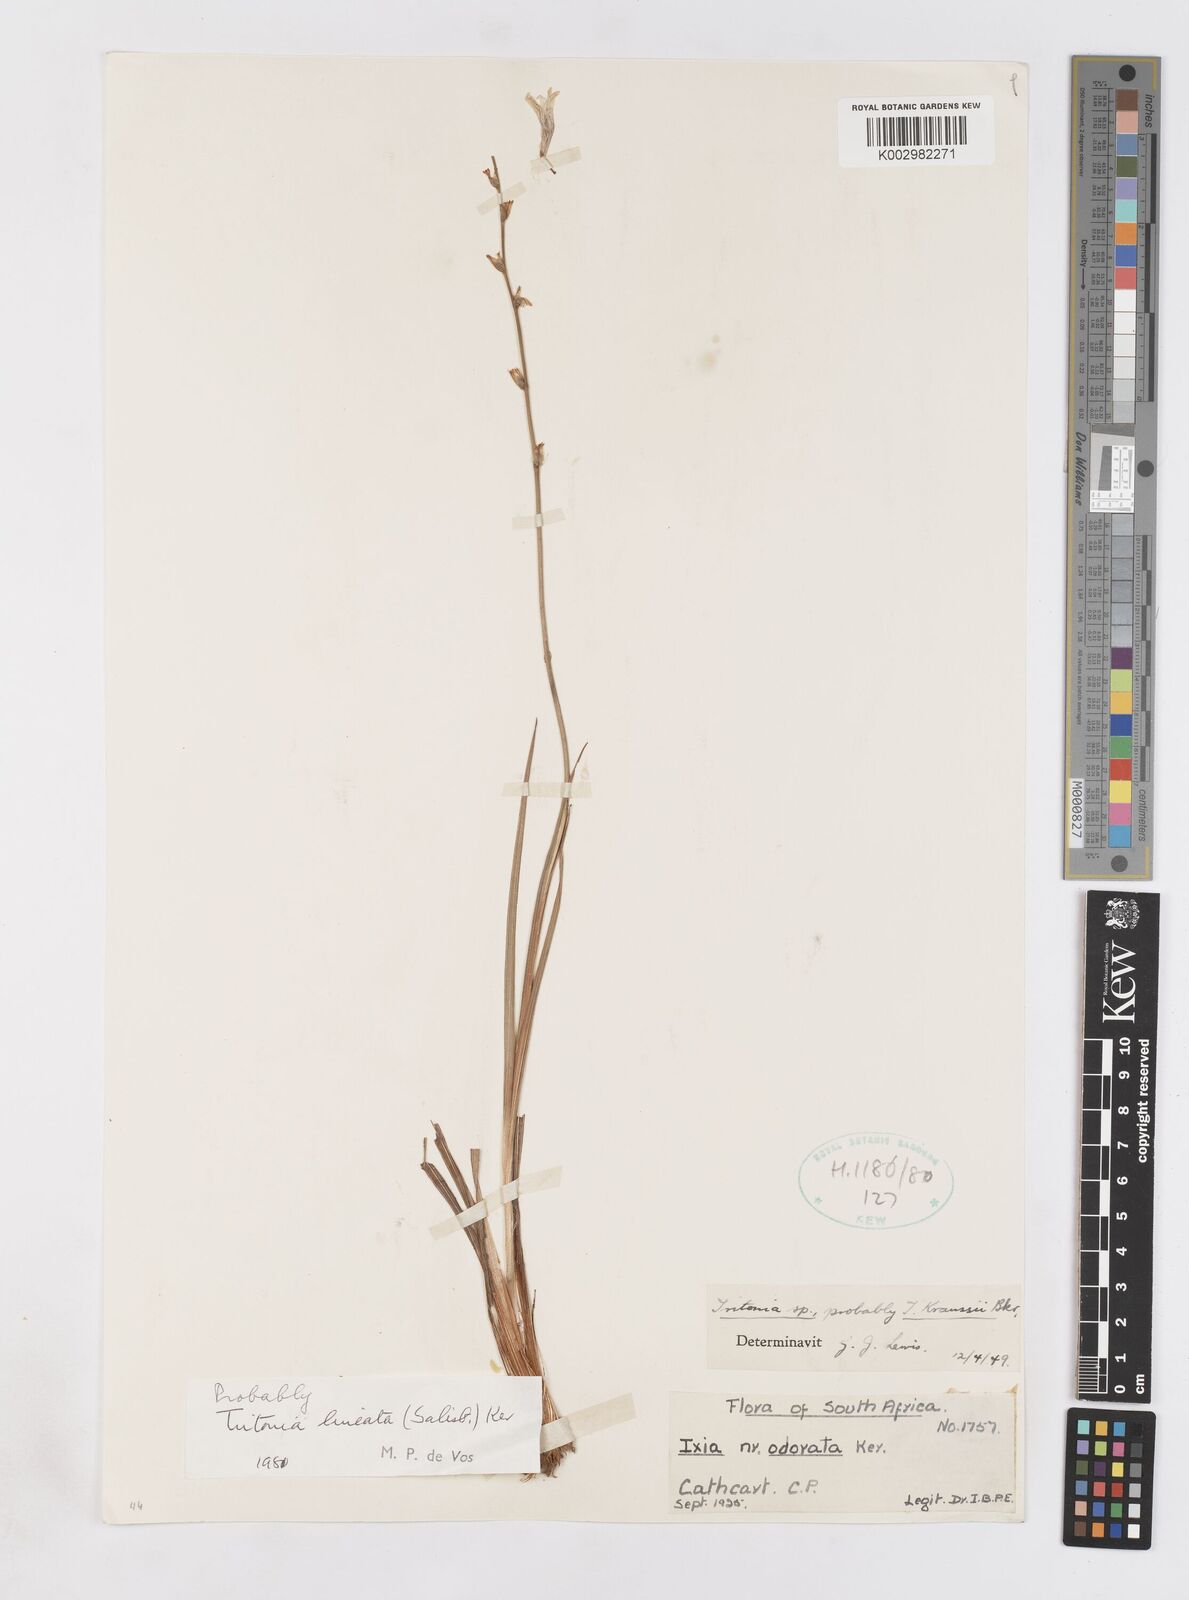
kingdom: Plantae
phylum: Tracheophyta
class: Liliopsida
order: Asparagales
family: Iridaceae
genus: Tritonia
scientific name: Tritonia gladiolaris
